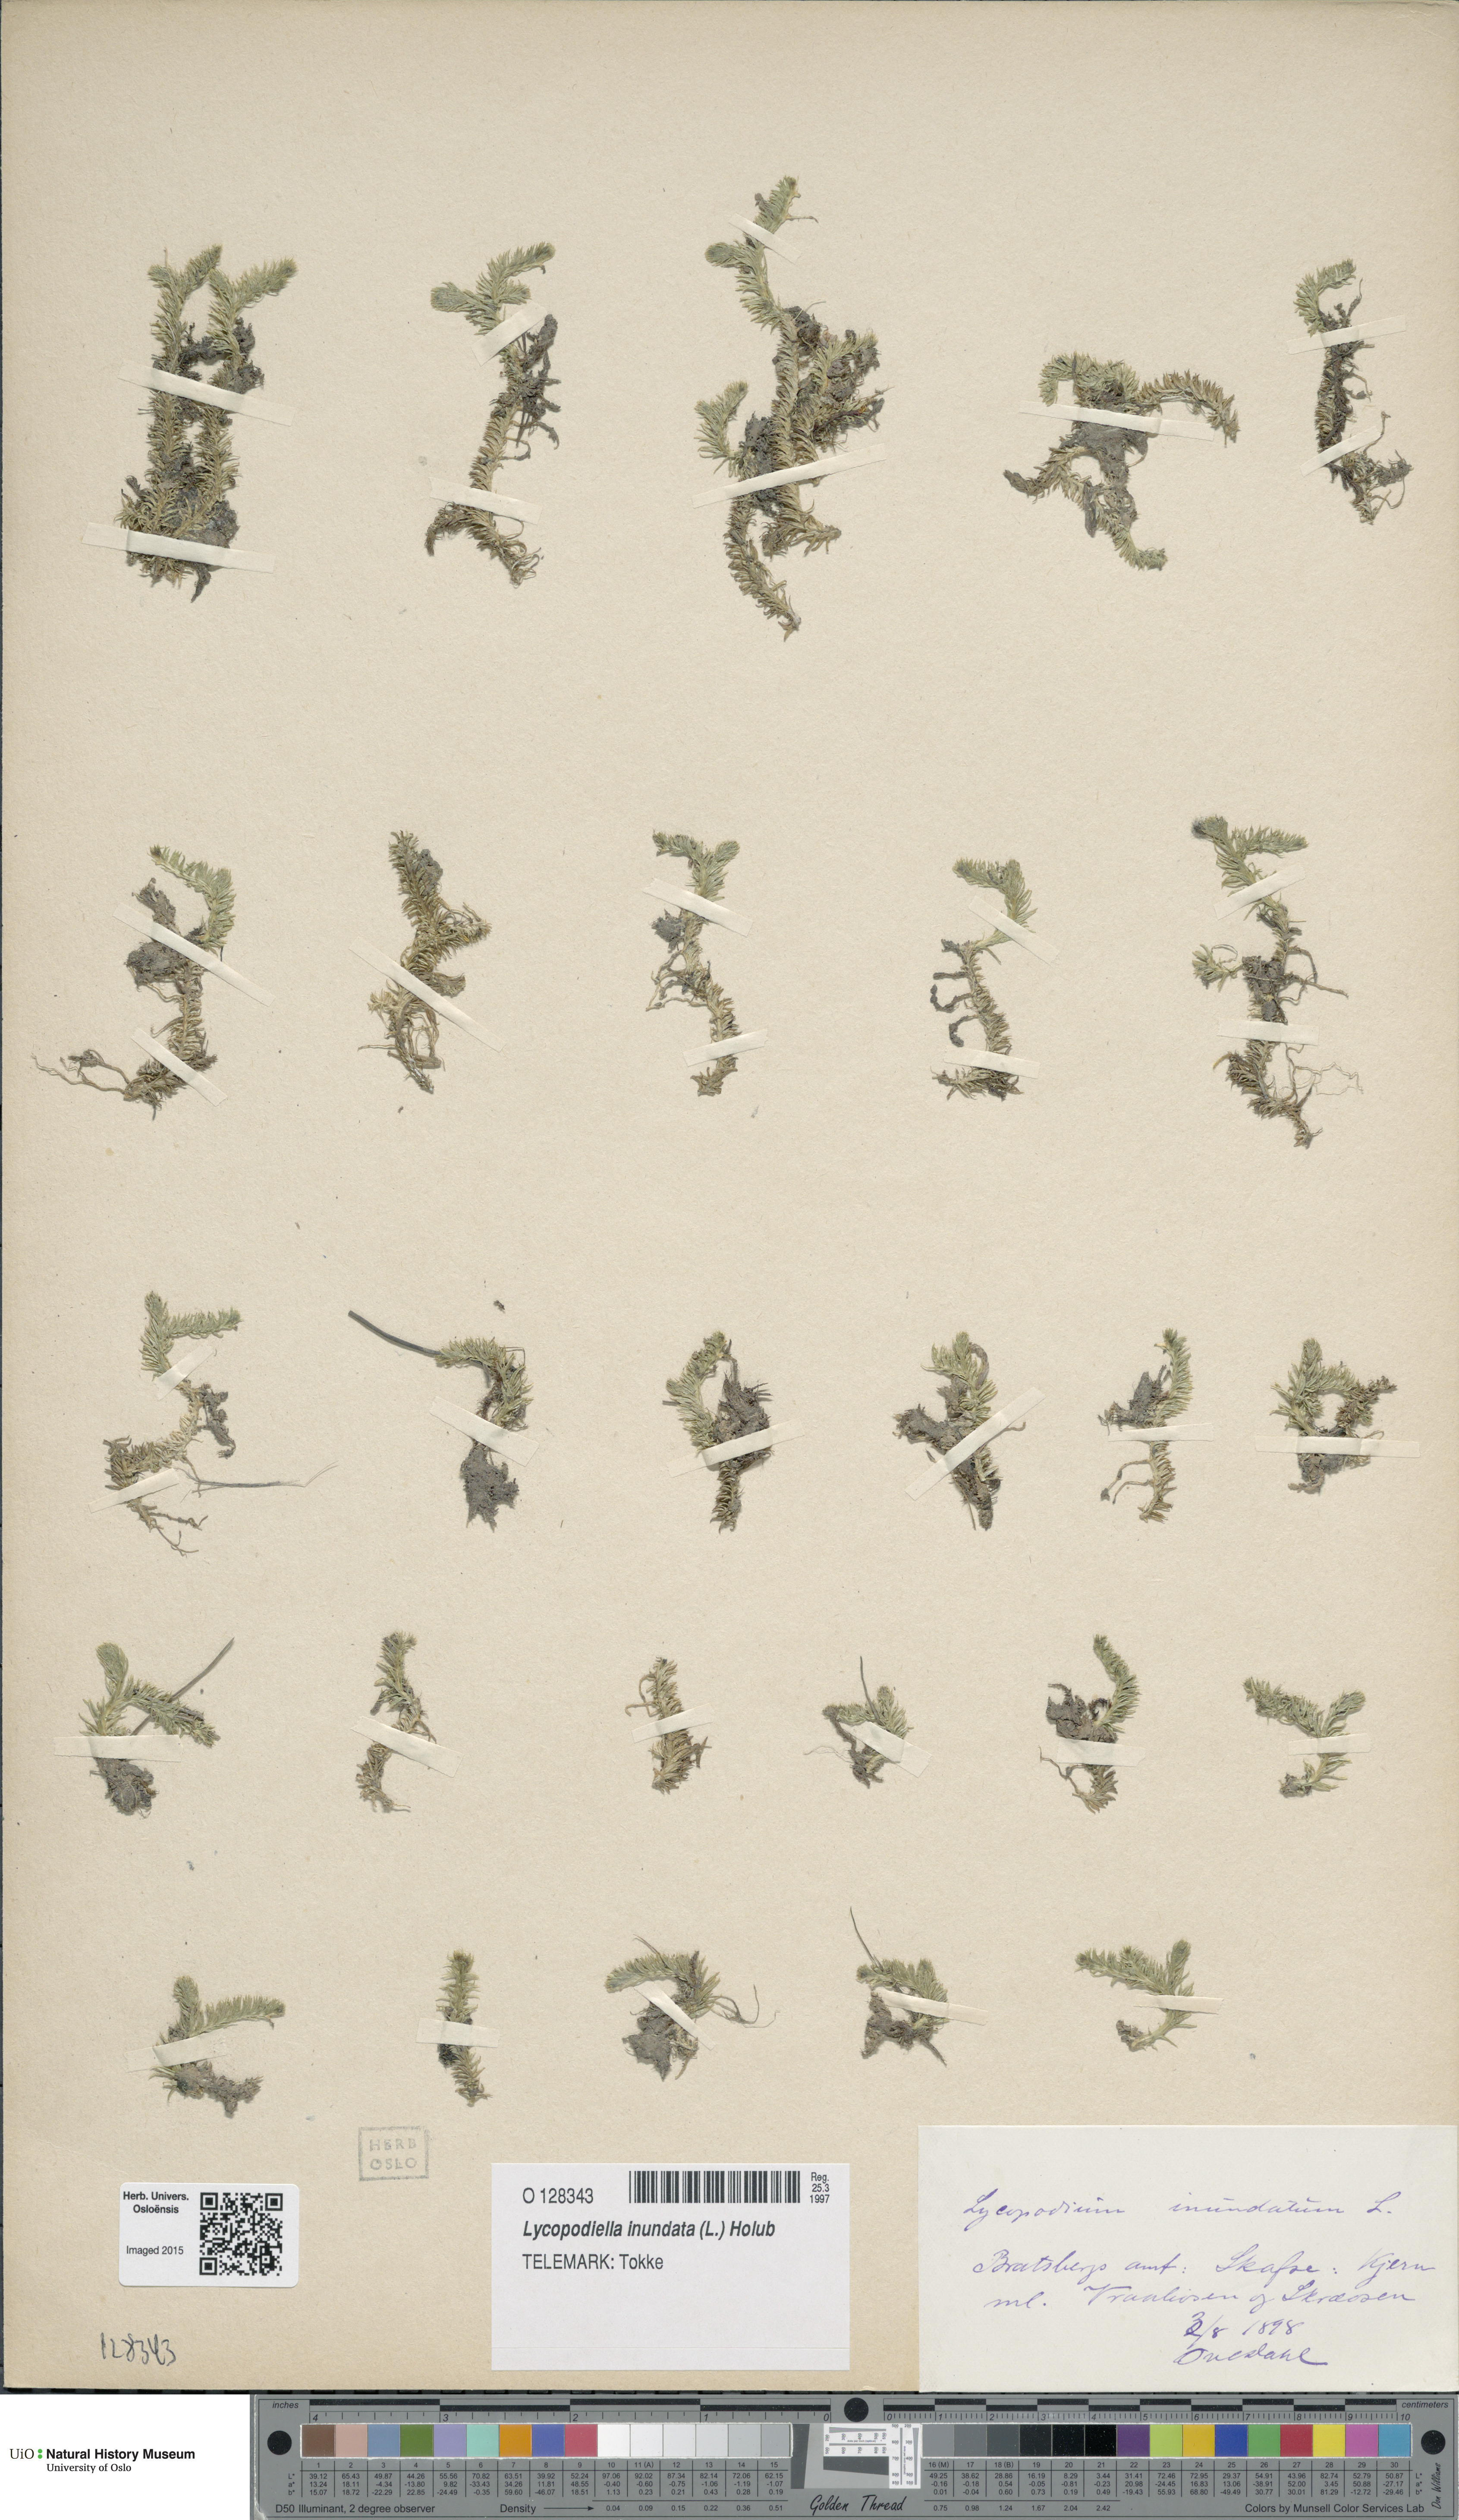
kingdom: Plantae
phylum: Tracheophyta
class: Lycopodiopsida
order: Lycopodiales
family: Lycopodiaceae
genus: Lycopodiella
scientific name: Lycopodiella inundata
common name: Marsh clubmoss
